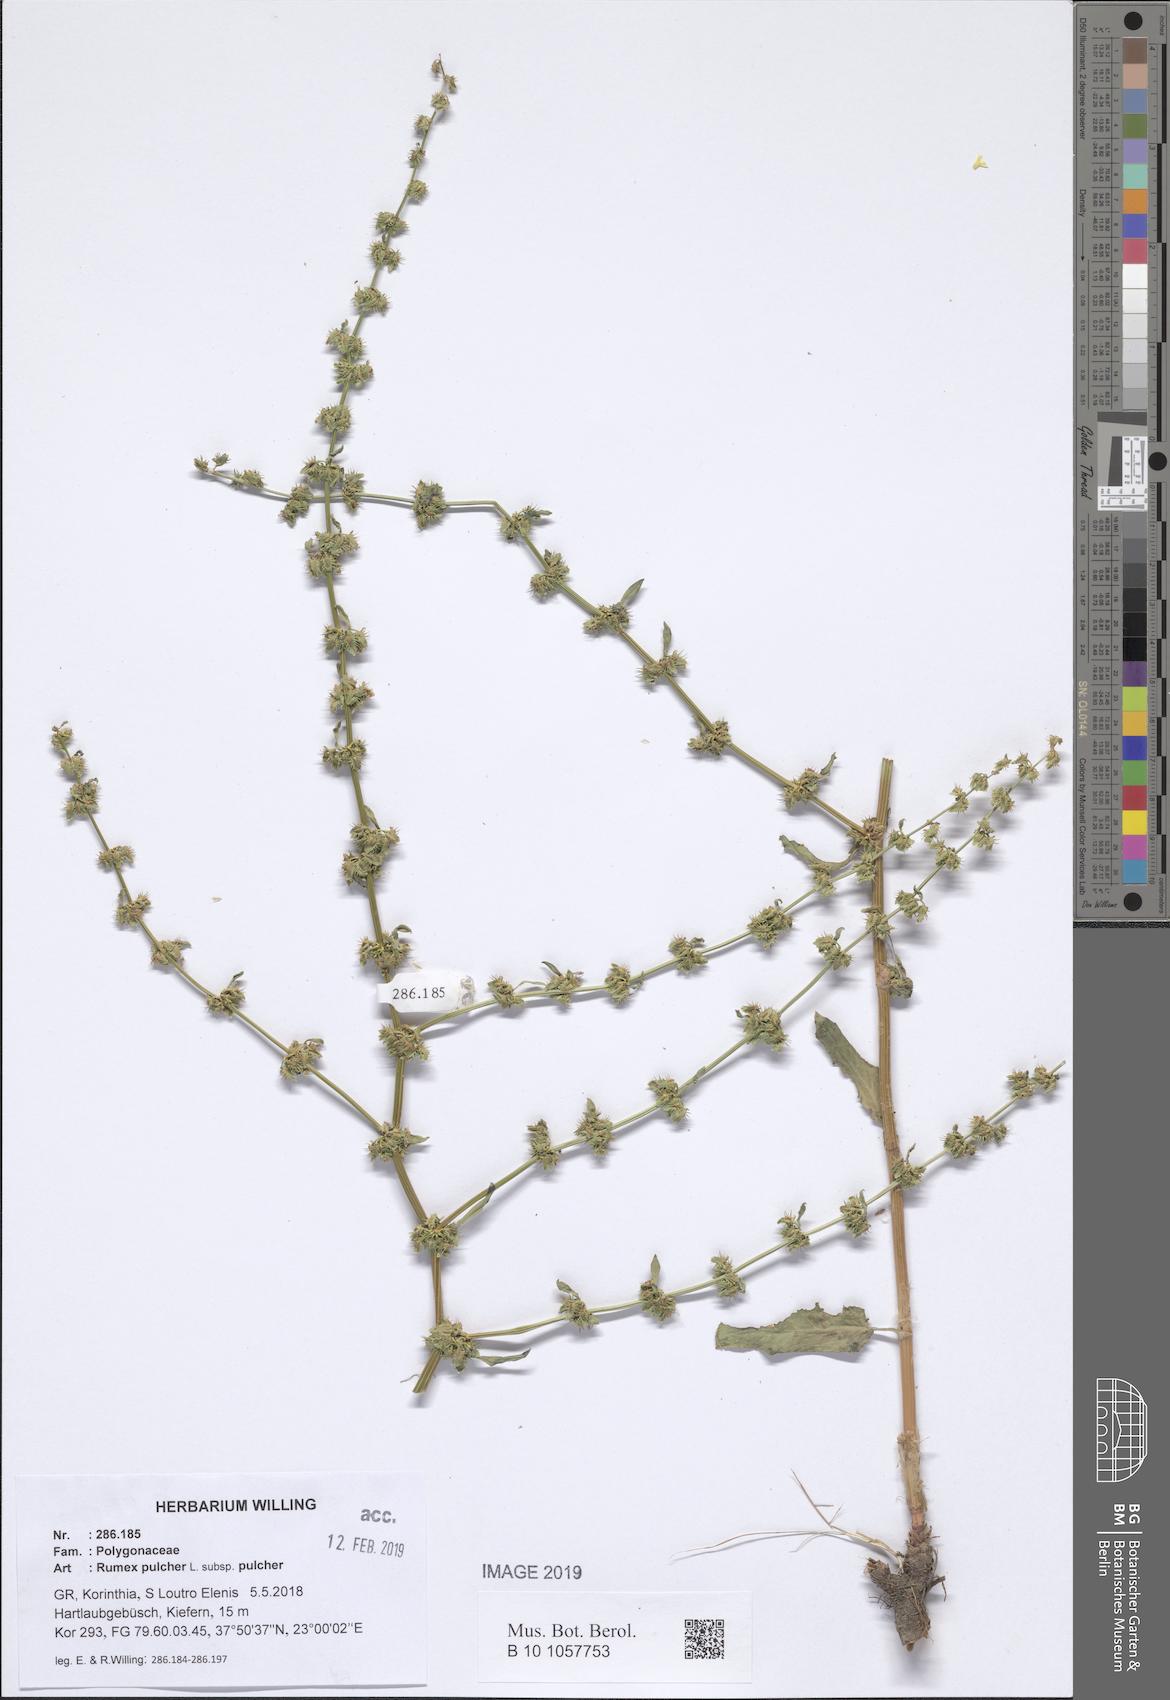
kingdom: Plantae
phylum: Tracheophyta
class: Magnoliopsida
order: Caryophyllales
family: Polygonaceae
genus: Rumex
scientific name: Rumex pulcher
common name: Fiddle dock
